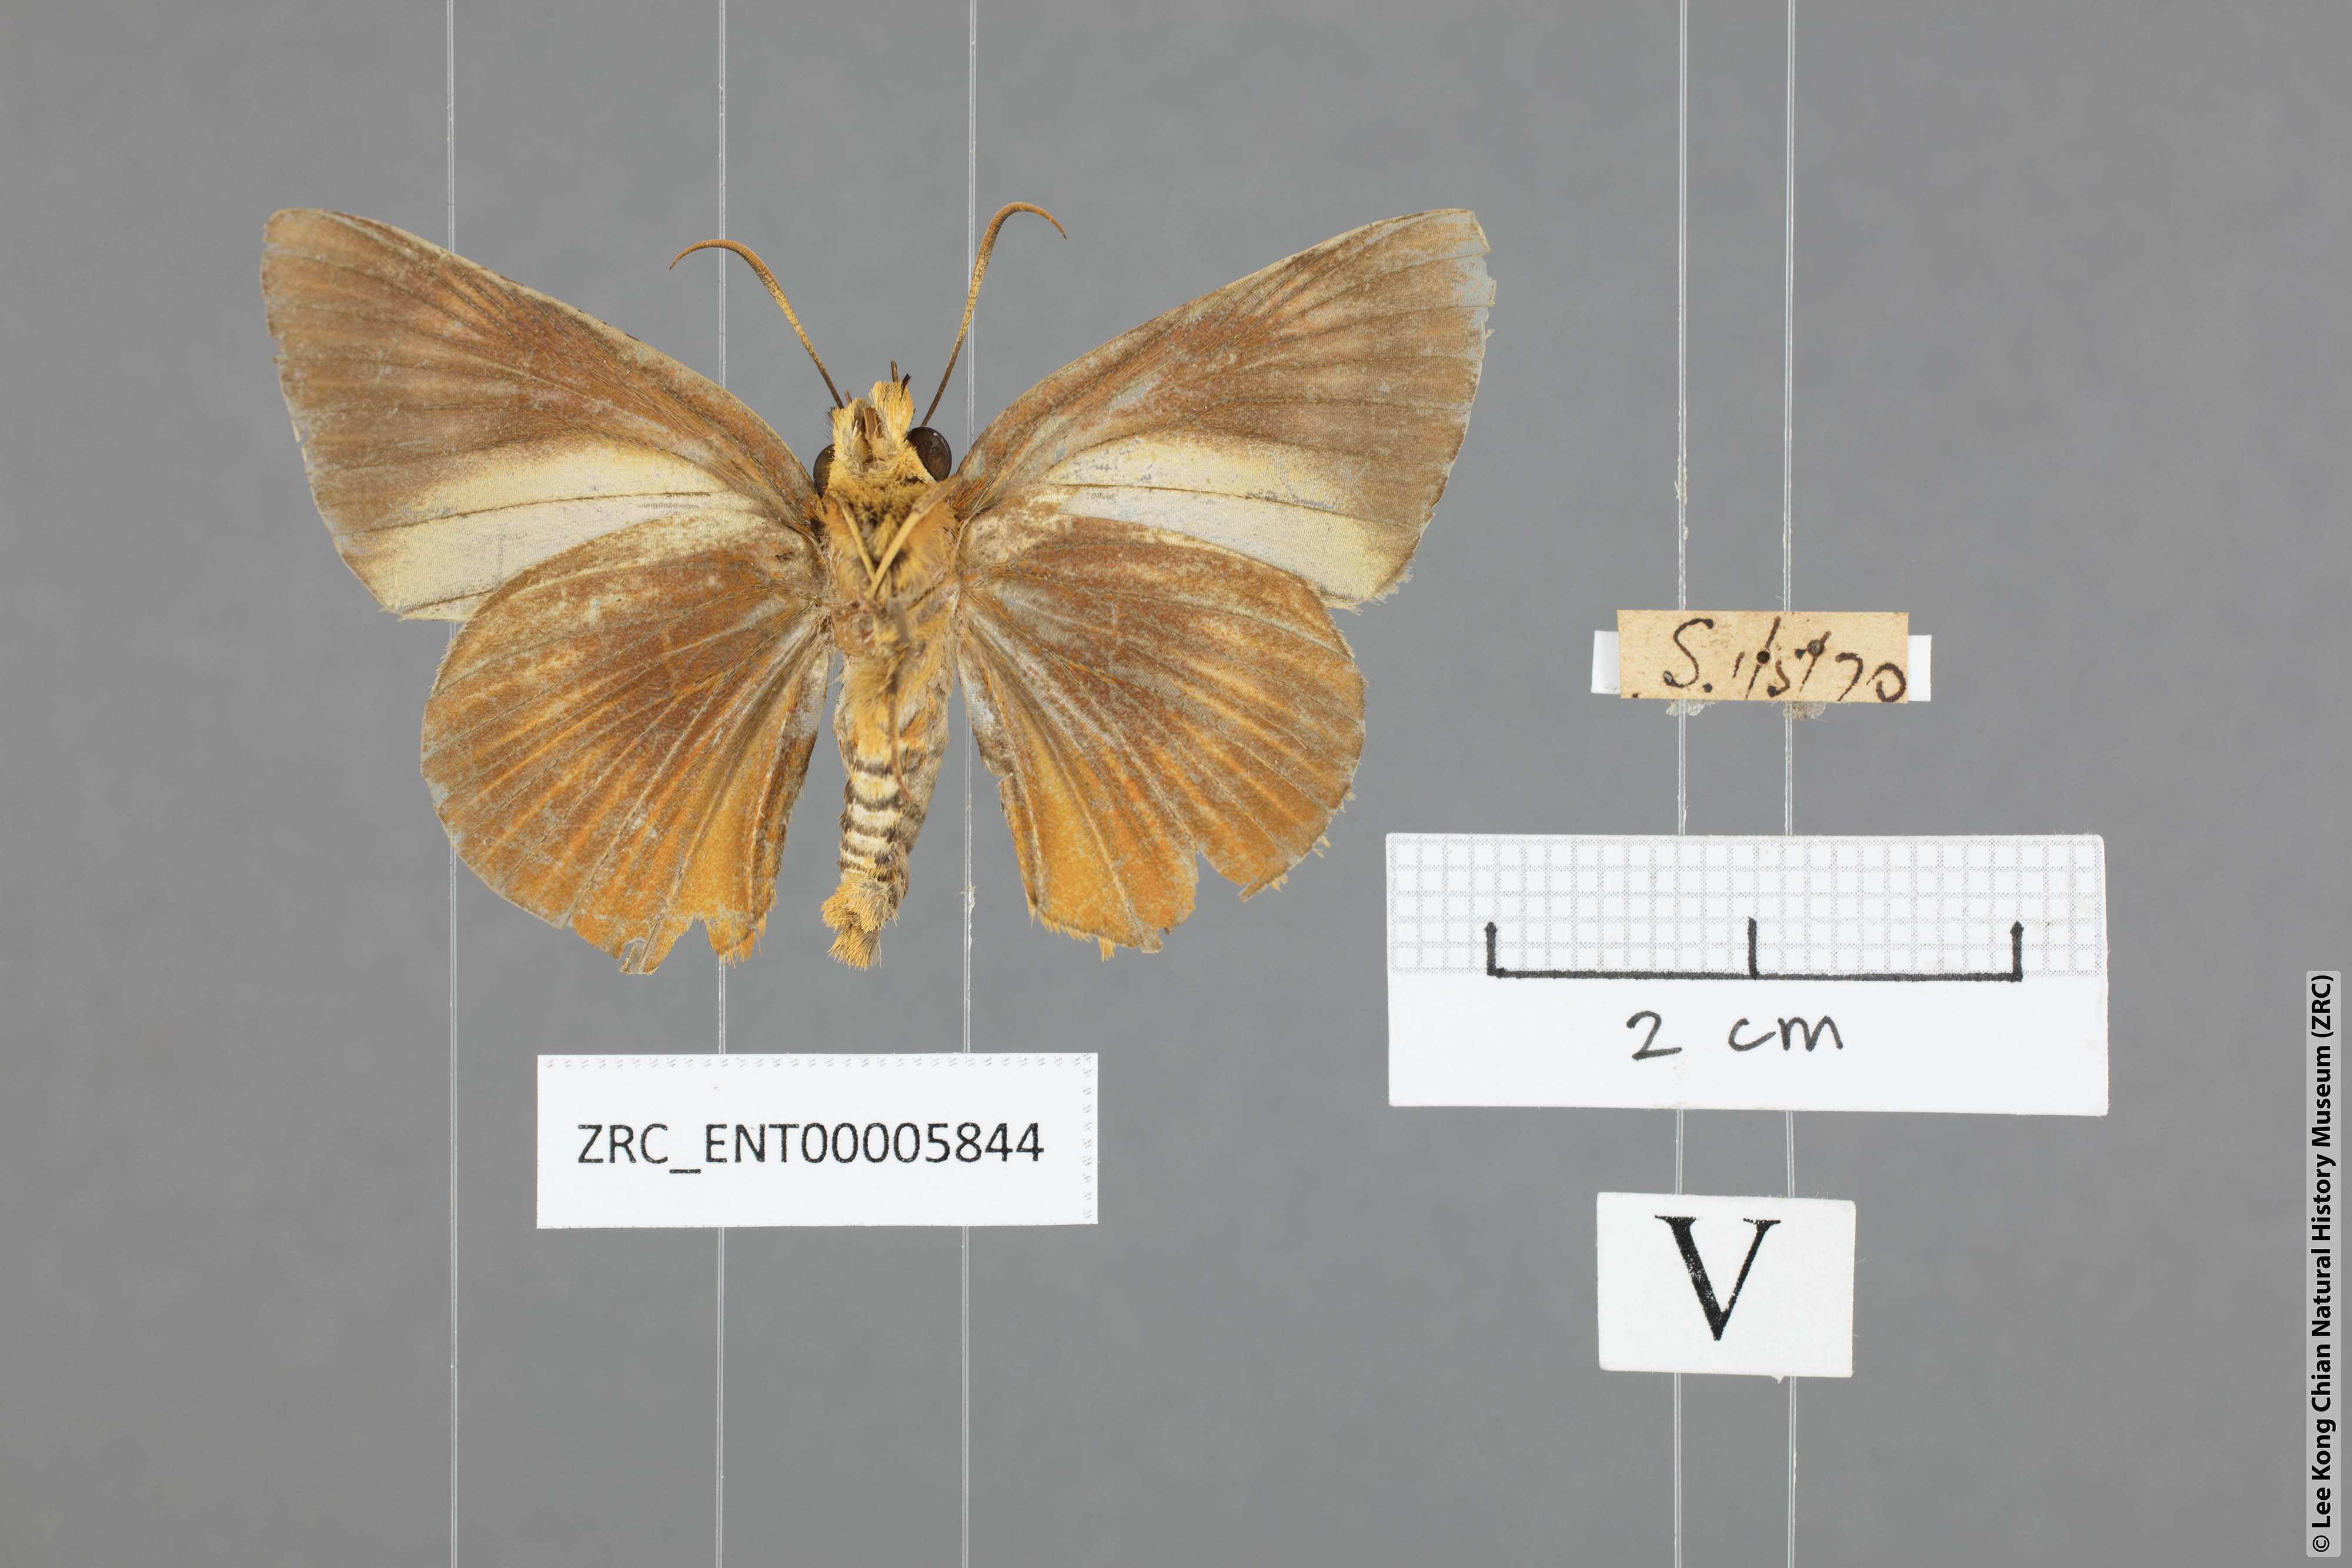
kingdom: Animalia
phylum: Arthropoda
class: Insecta
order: Lepidoptera
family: Hesperiidae
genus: Bibasis
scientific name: Bibasis Burara harisa
